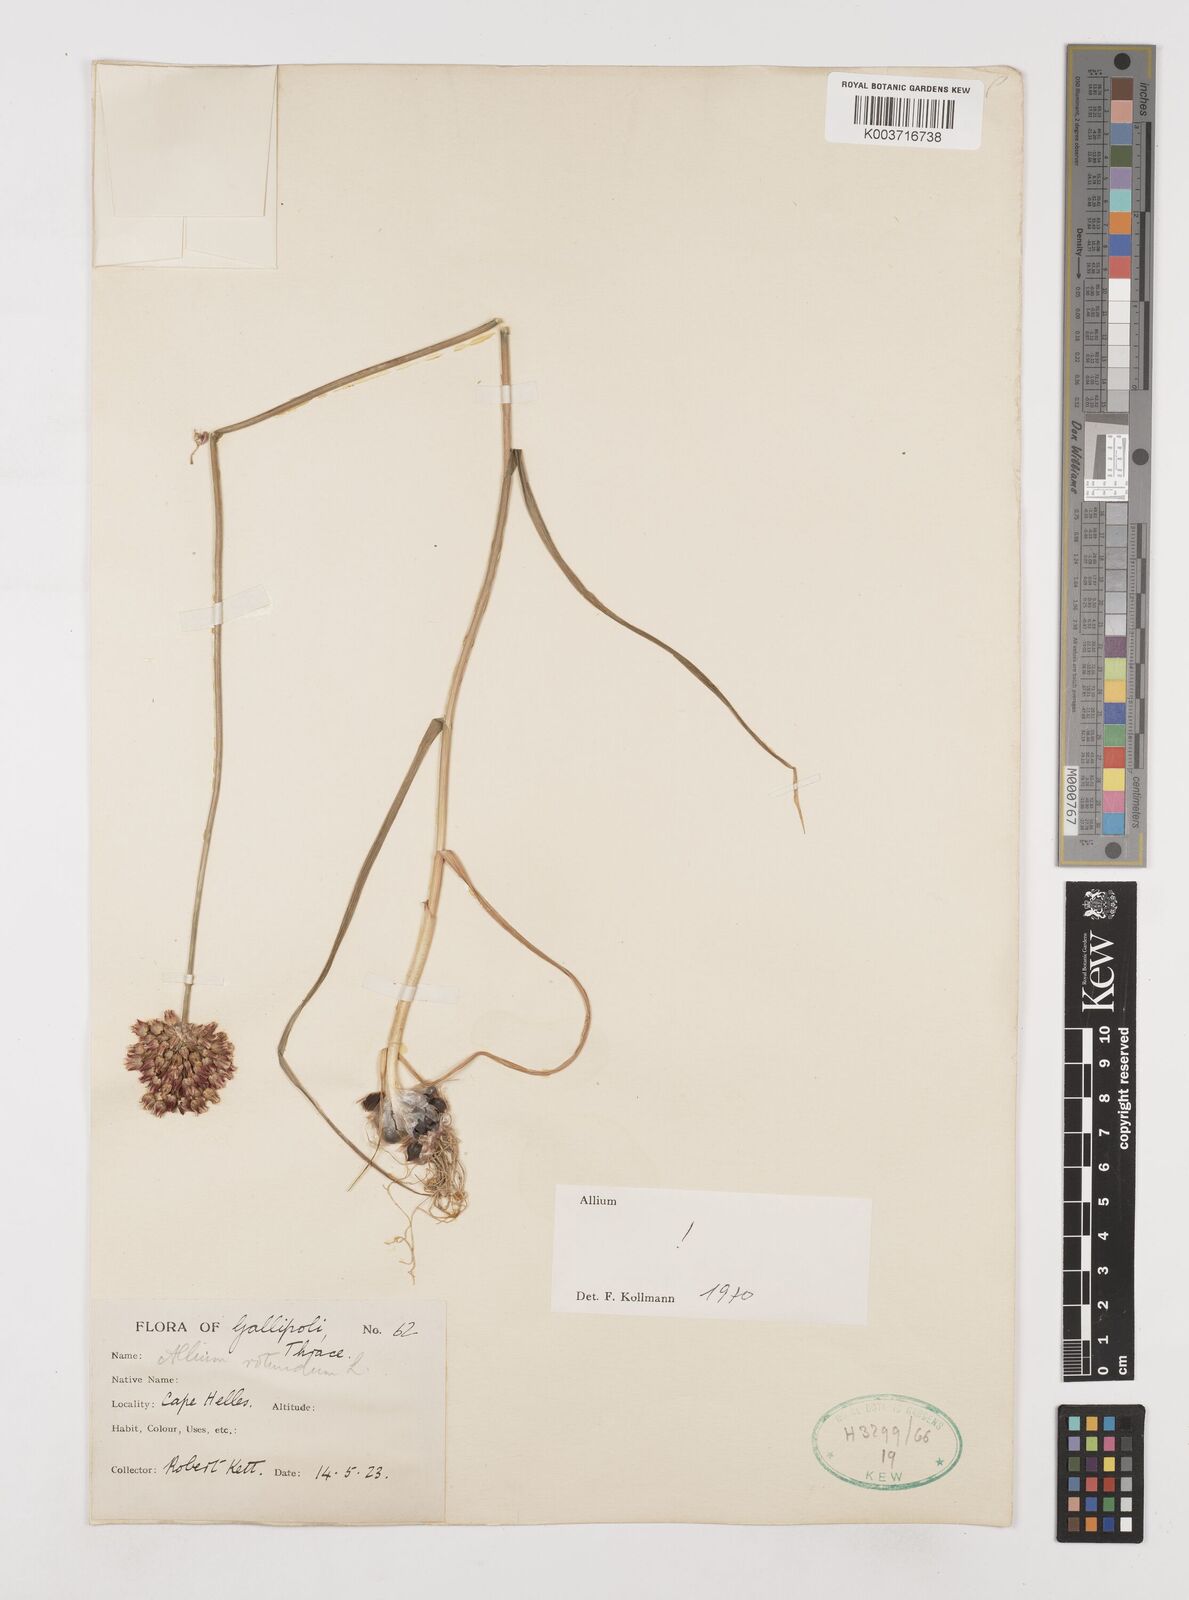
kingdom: Plantae
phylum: Tracheophyta
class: Liliopsida
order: Asparagales
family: Amaryllidaceae
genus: Allium
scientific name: Allium rotundum
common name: Sand leek
